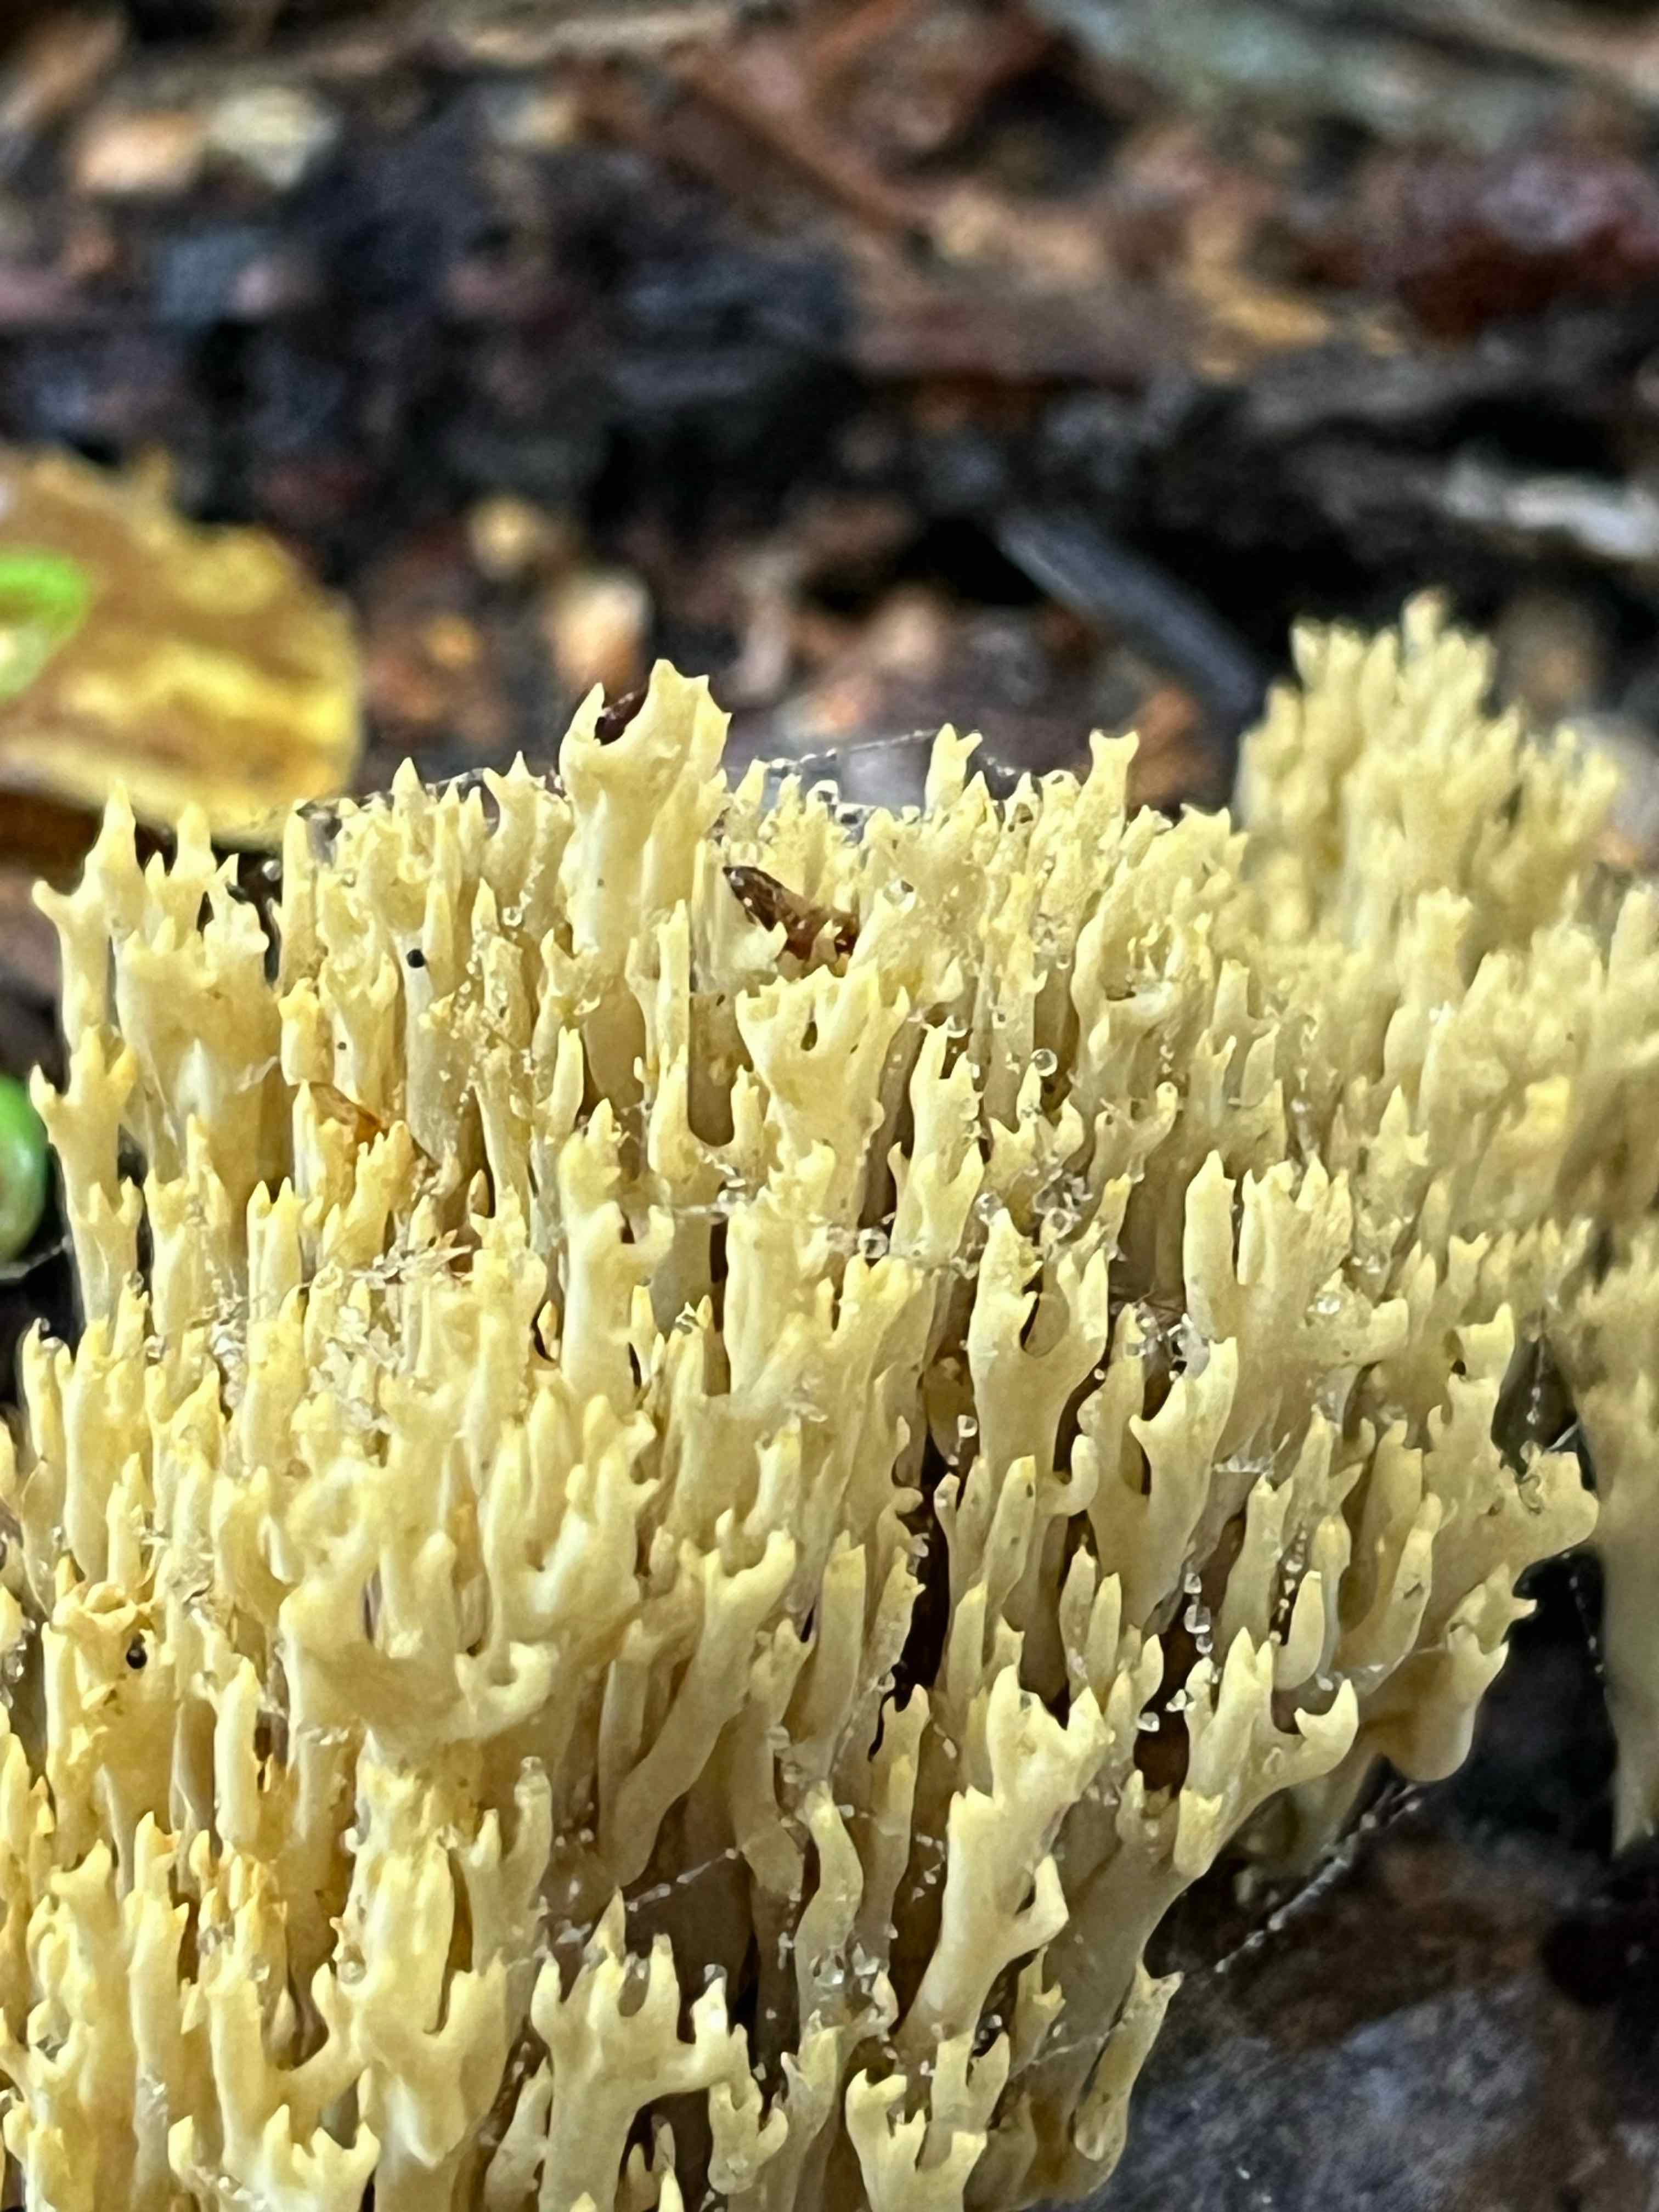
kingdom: Fungi
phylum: Basidiomycota
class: Agaricomycetes
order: Gomphales
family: Gomphaceae
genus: Phaeoclavulina
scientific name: Phaeoclavulina
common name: koralsvamp
